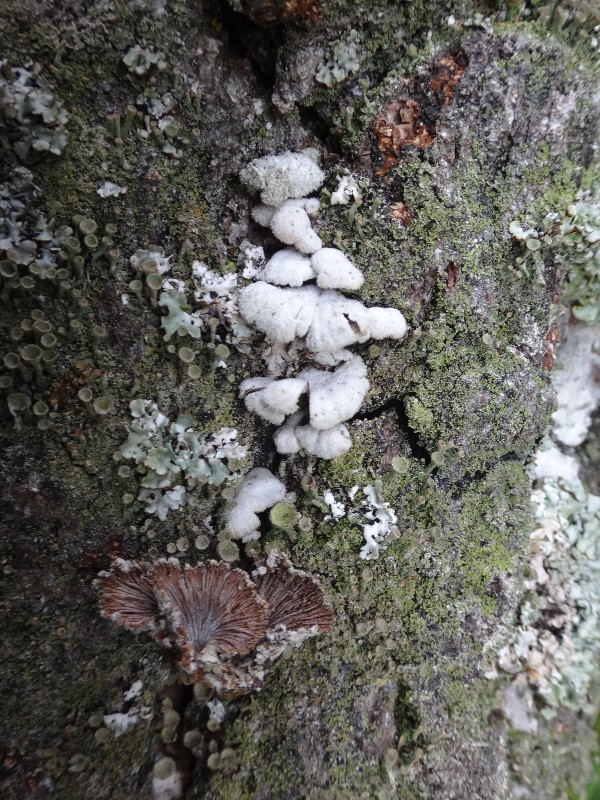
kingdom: Fungi
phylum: Basidiomycota
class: Agaricomycetes
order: Agaricales
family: Schizophyllaceae
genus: Schizophyllum
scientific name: Schizophyllum commune
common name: kløvblad
